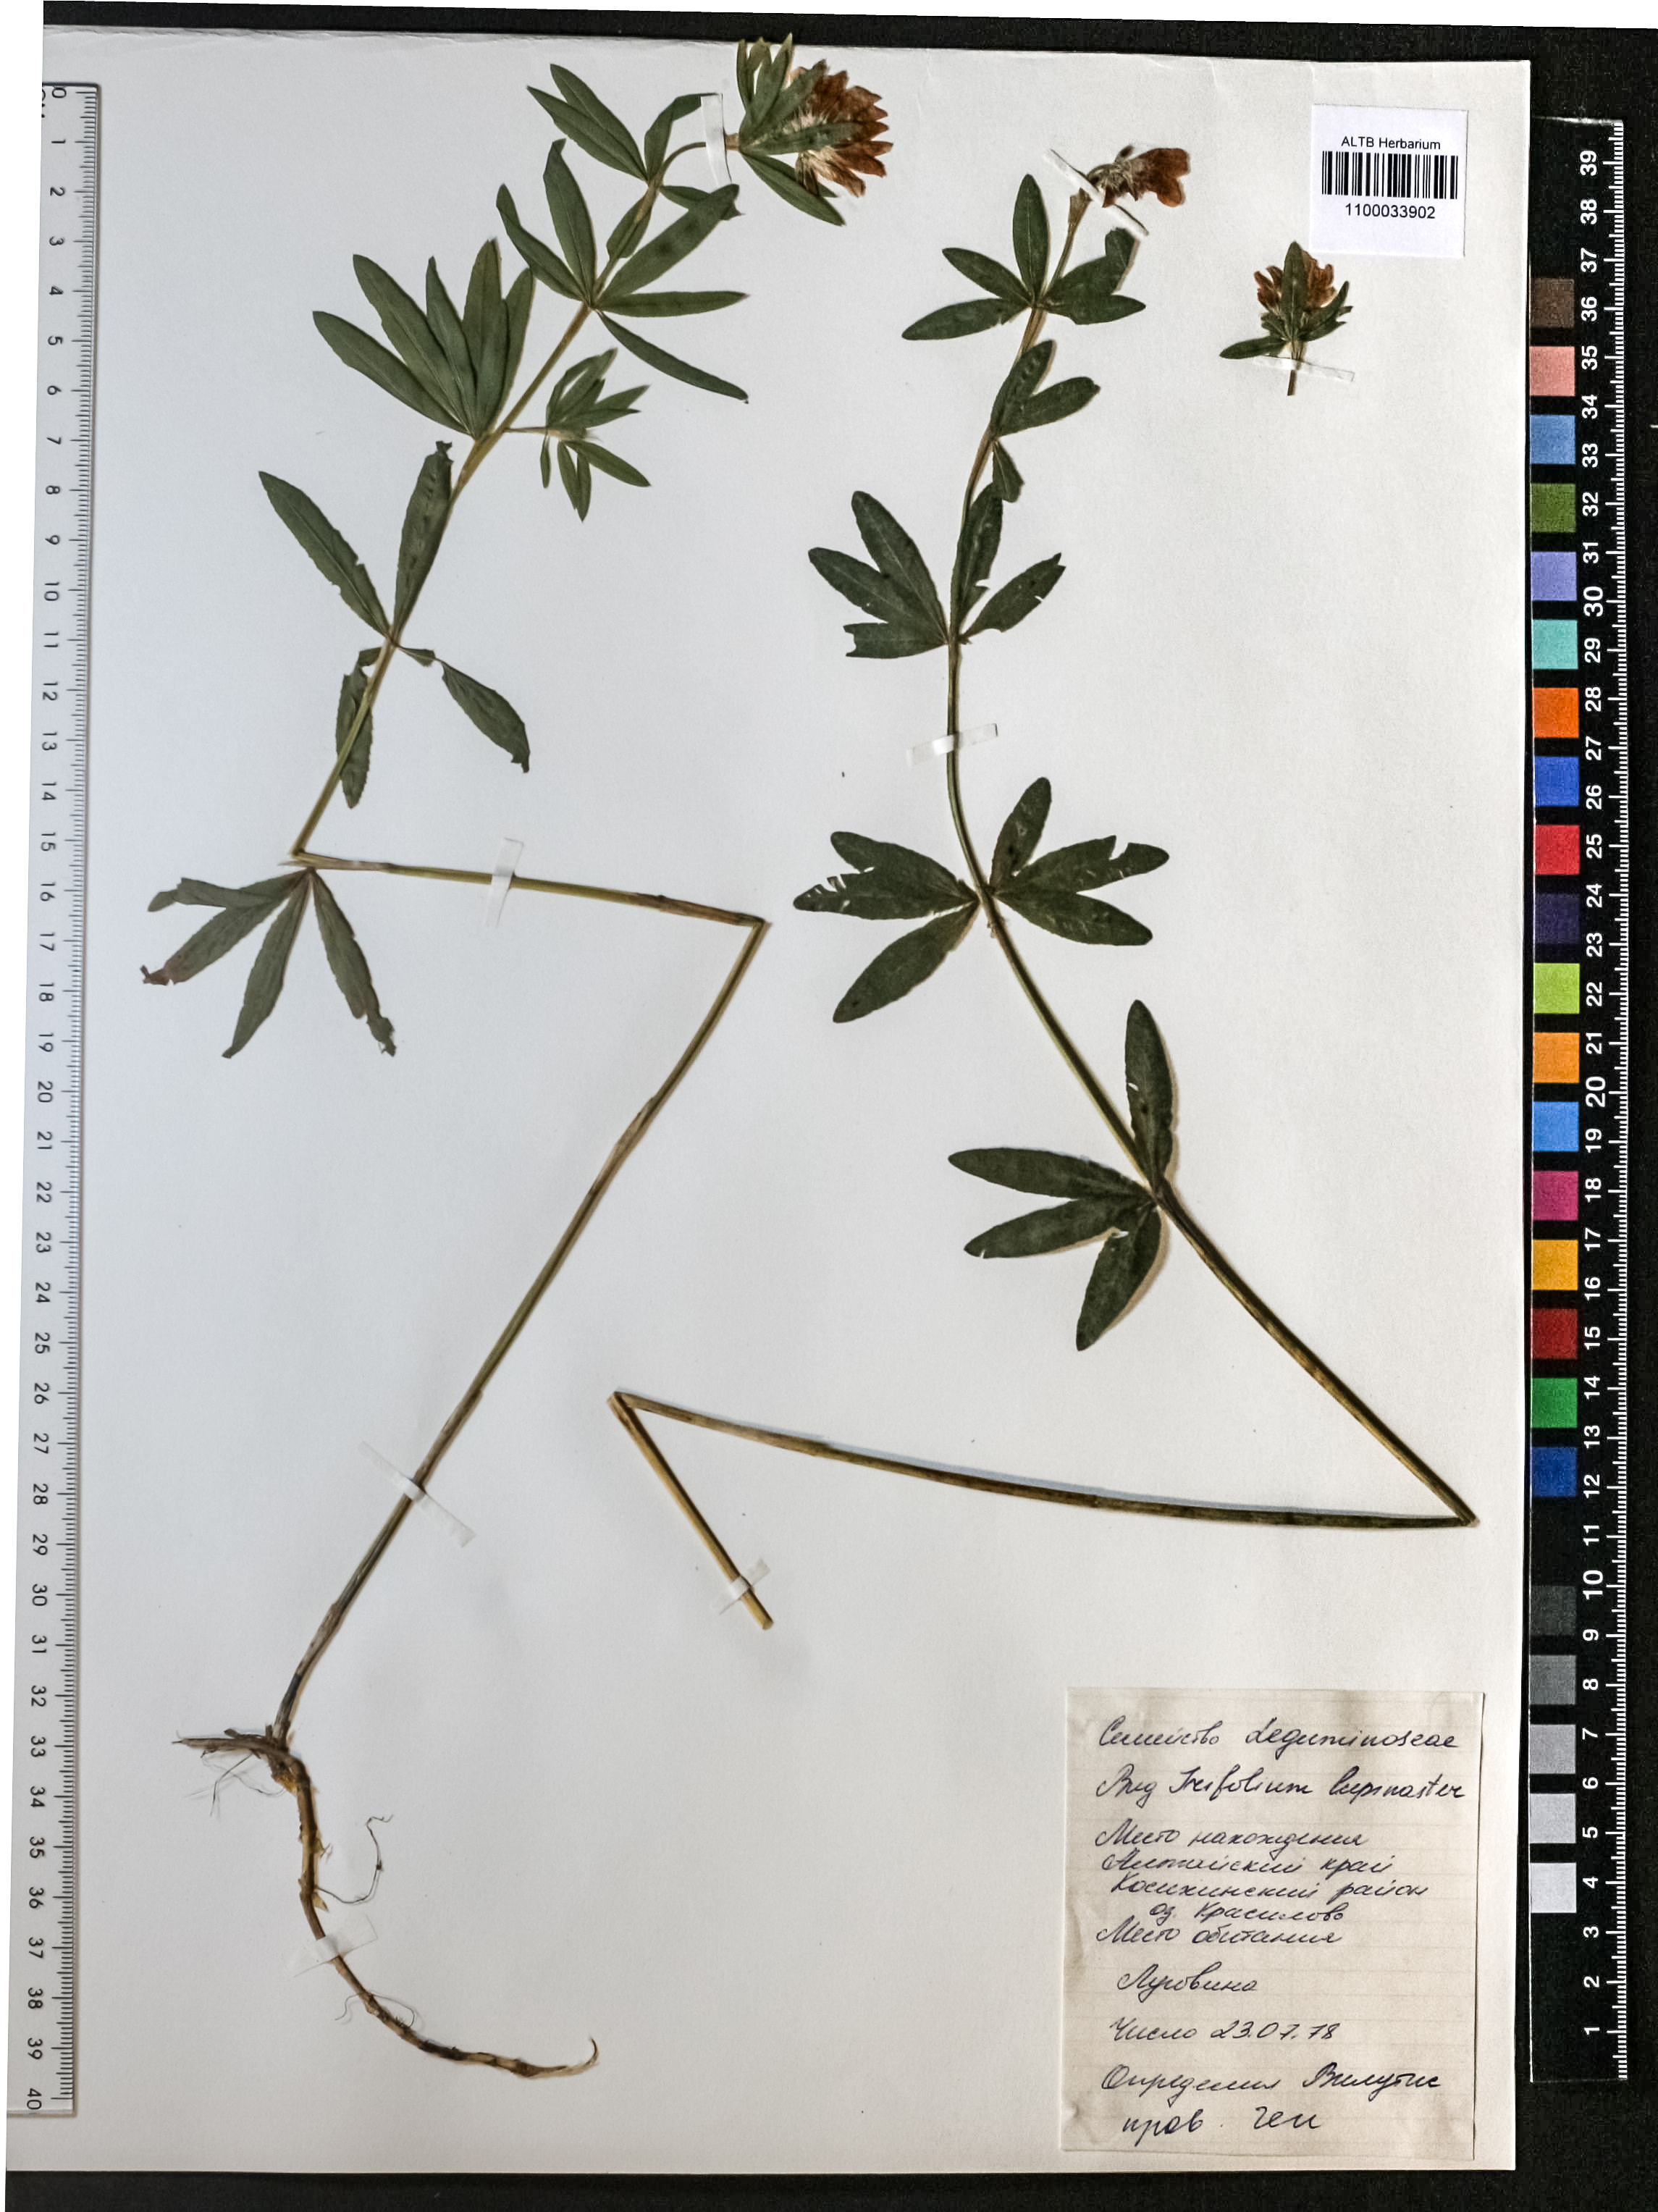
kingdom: Plantae
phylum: Tracheophyta
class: Magnoliopsida
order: Fabales
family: Fabaceae
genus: Trifolium
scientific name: Trifolium lupinaster
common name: Lupine clover
